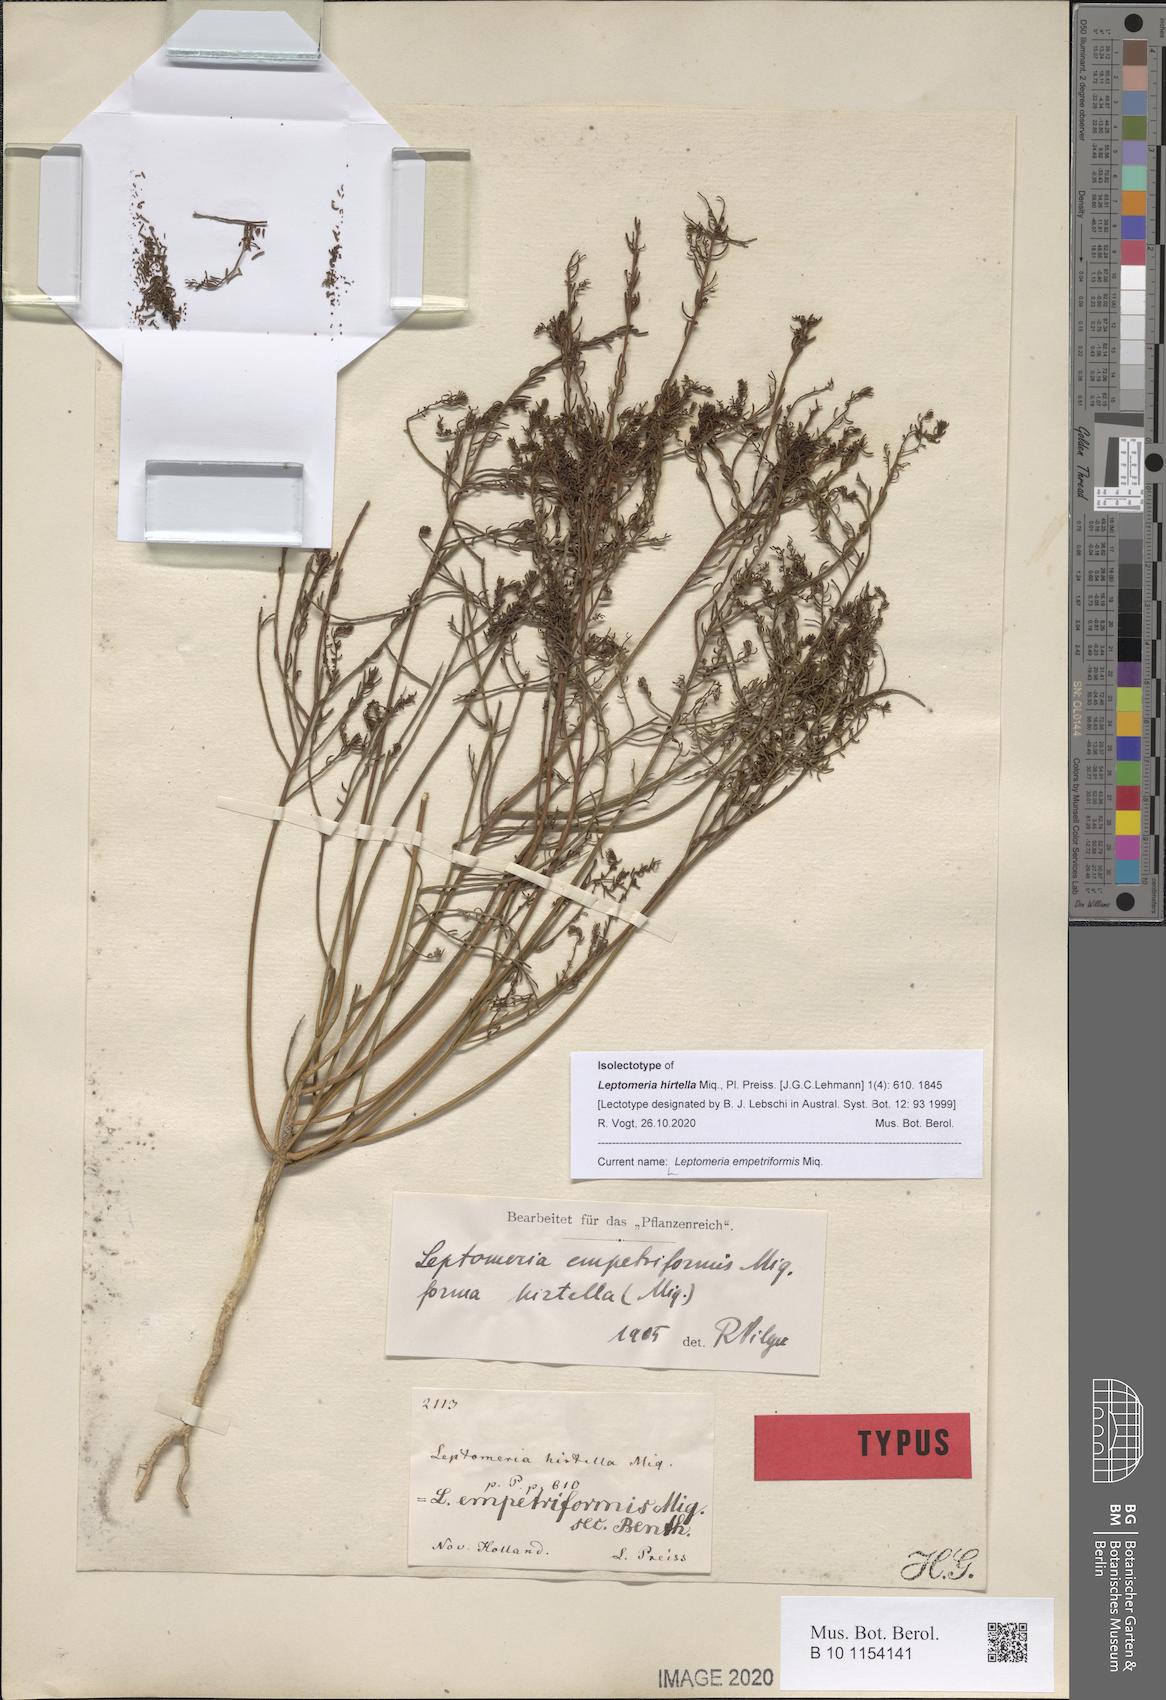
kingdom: Plantae
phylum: Tracheophyta
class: Magnoliopsida
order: Santalales
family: Amphorogynaceae
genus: Leptomeria
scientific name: Leptomeria empetriformis
